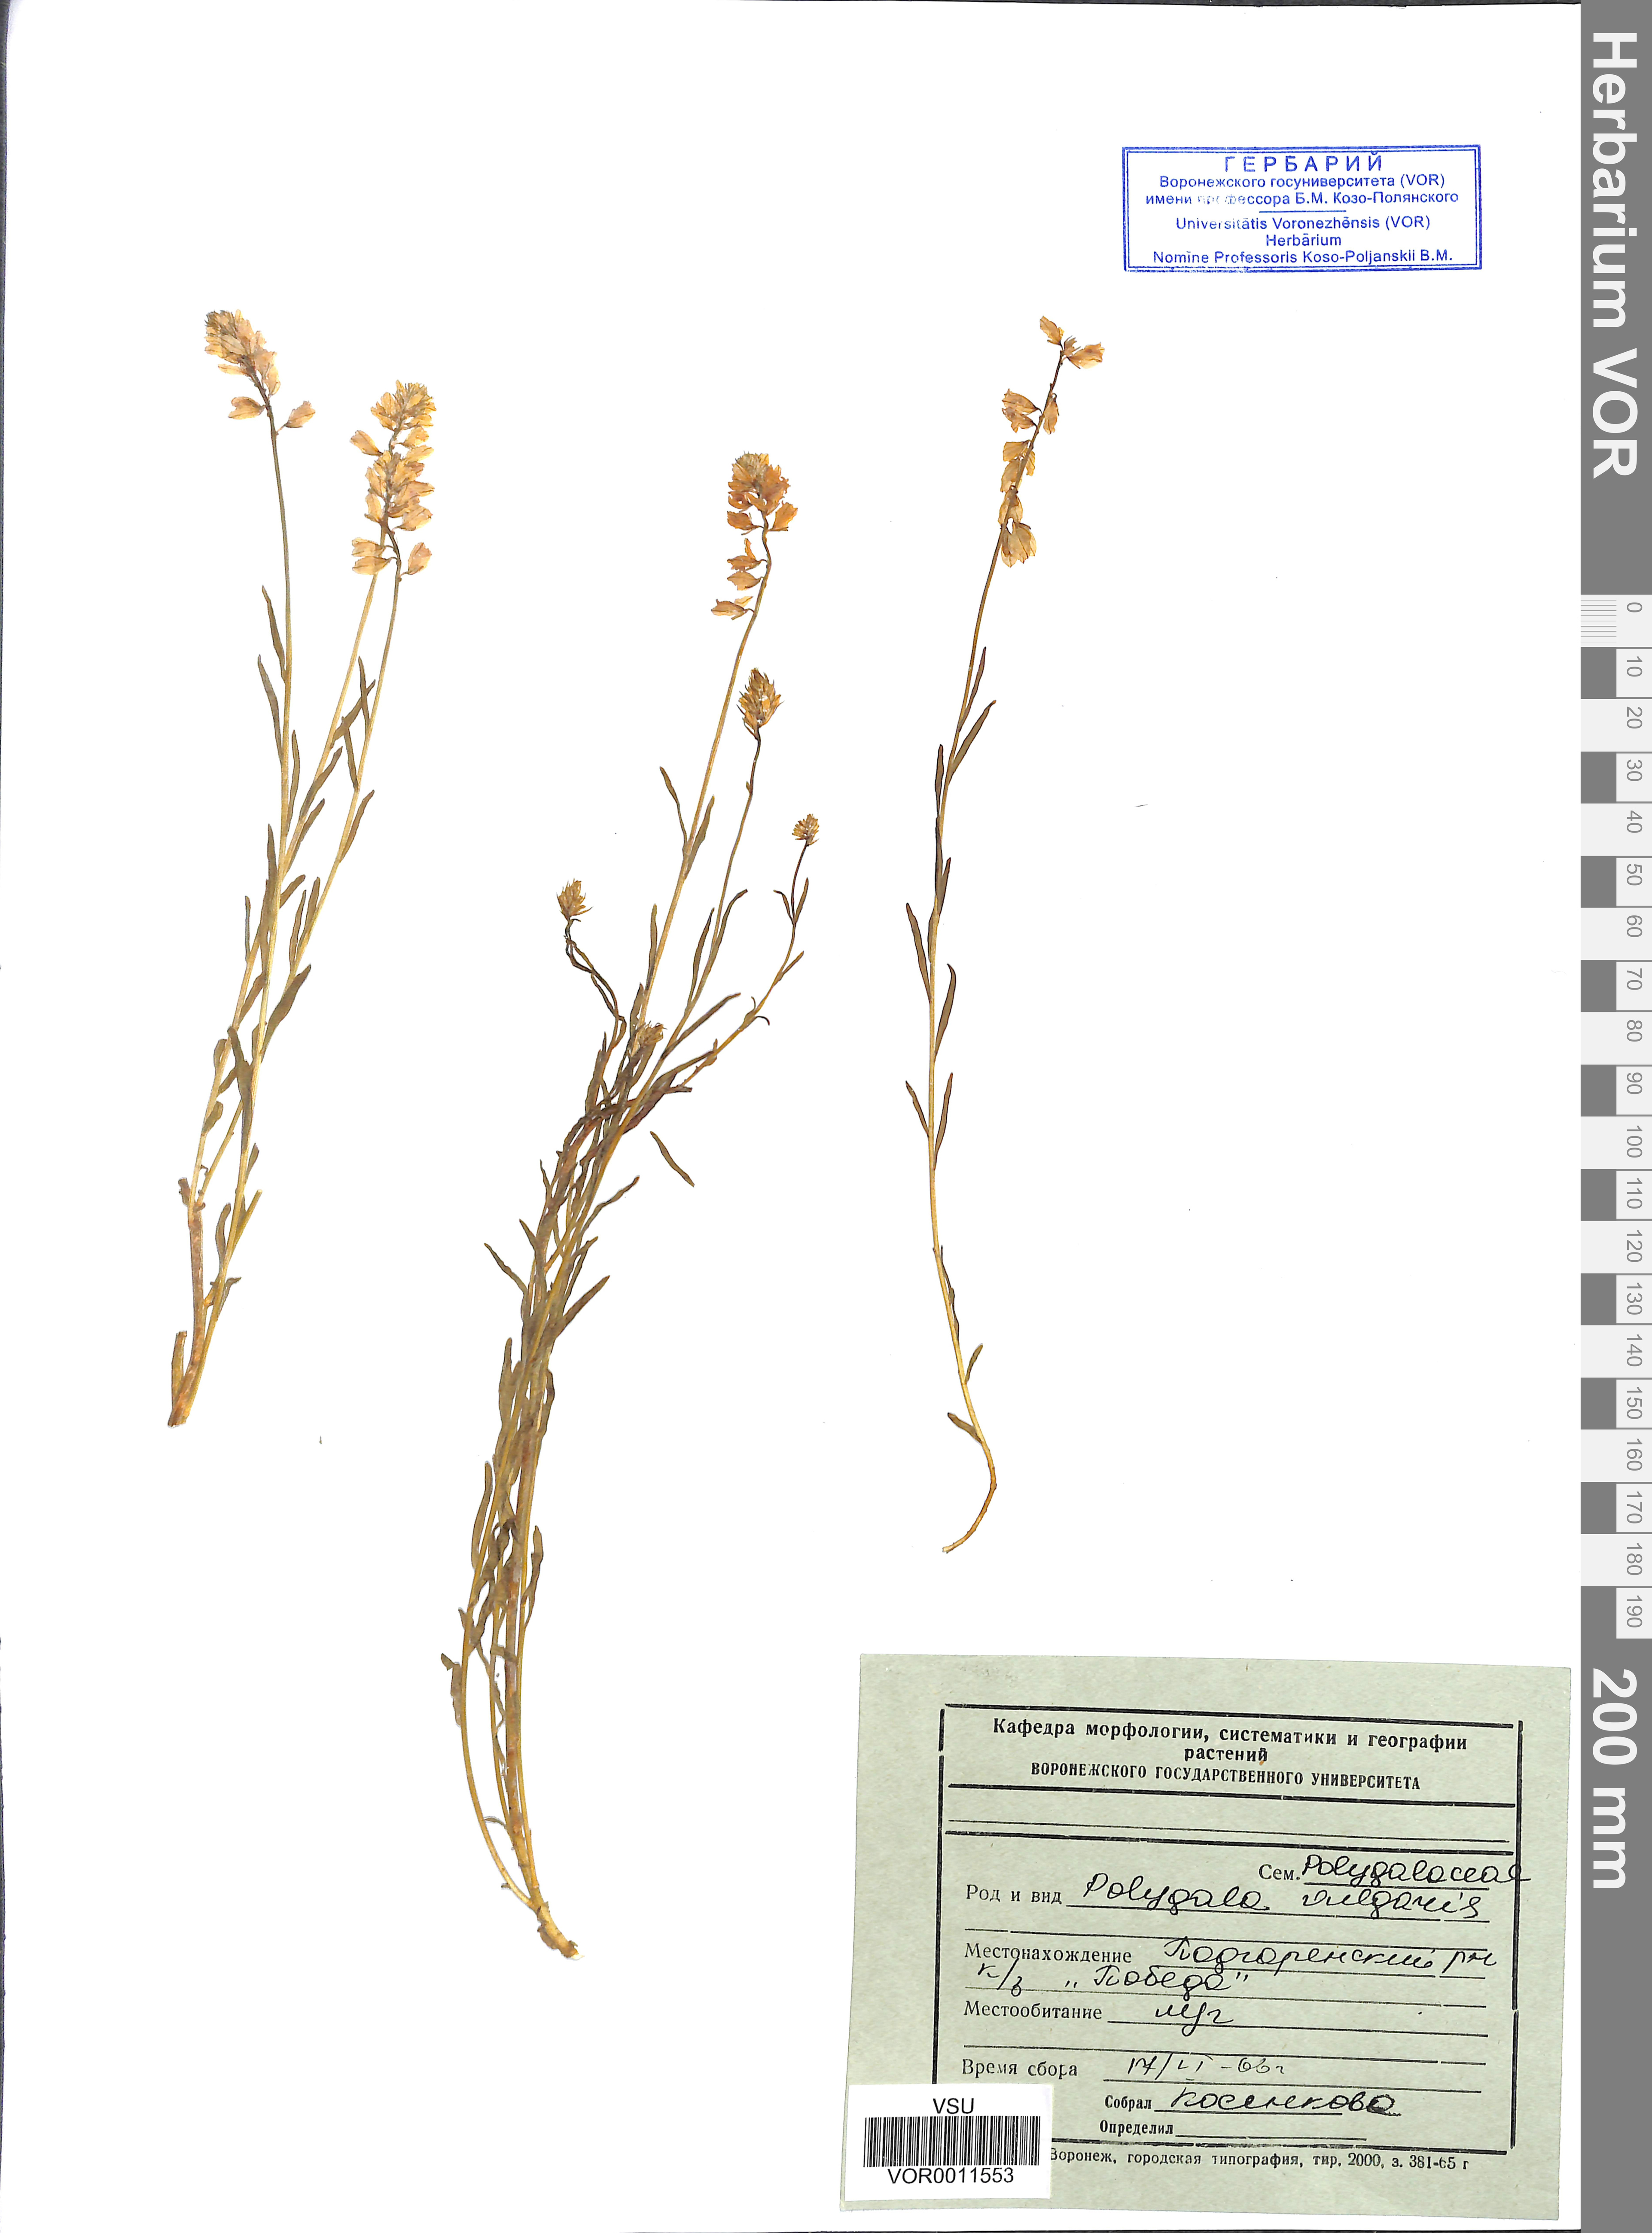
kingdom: Plantae
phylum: Tracheophyta
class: Magnoliopsida
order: Fabales
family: Polygalaceae
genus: Polygala
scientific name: Polygala vulgaris
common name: Common milkwort
